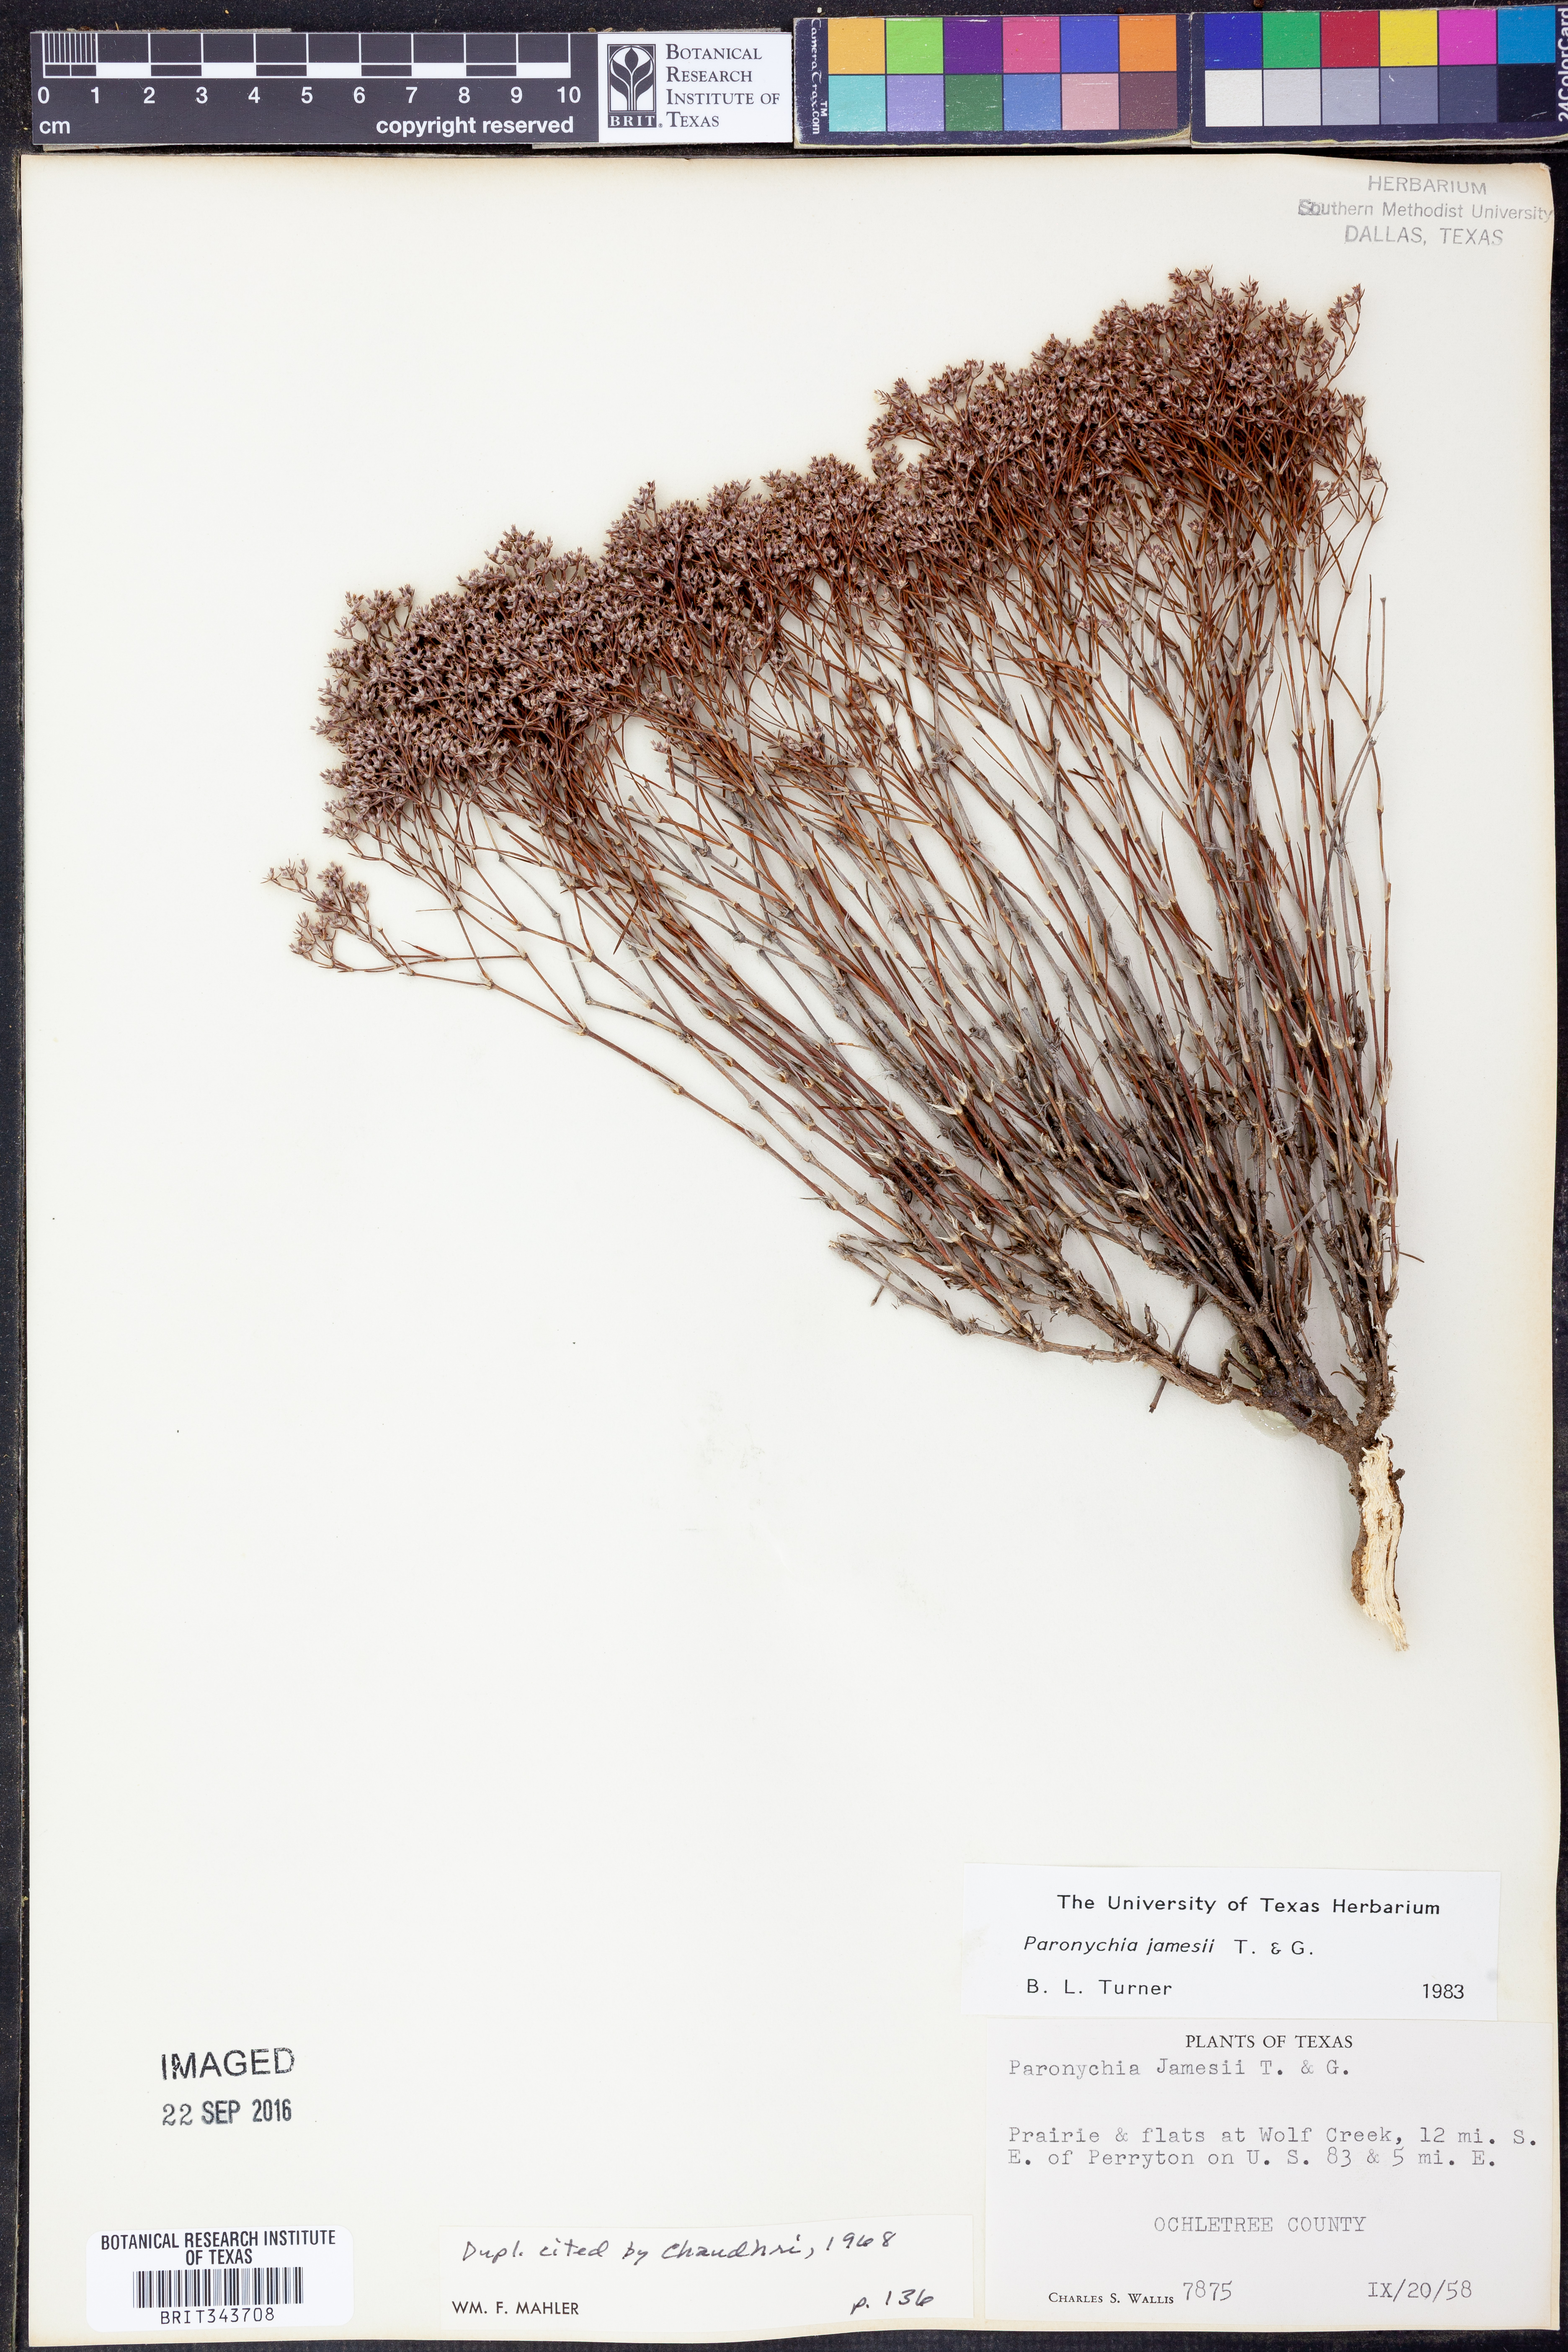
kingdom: Plantae
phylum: Tracheophyta
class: Magnoliopsida
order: Caryophyllales
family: Caryophyllaceae
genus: Paronychia
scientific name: Paronychia jamesii
